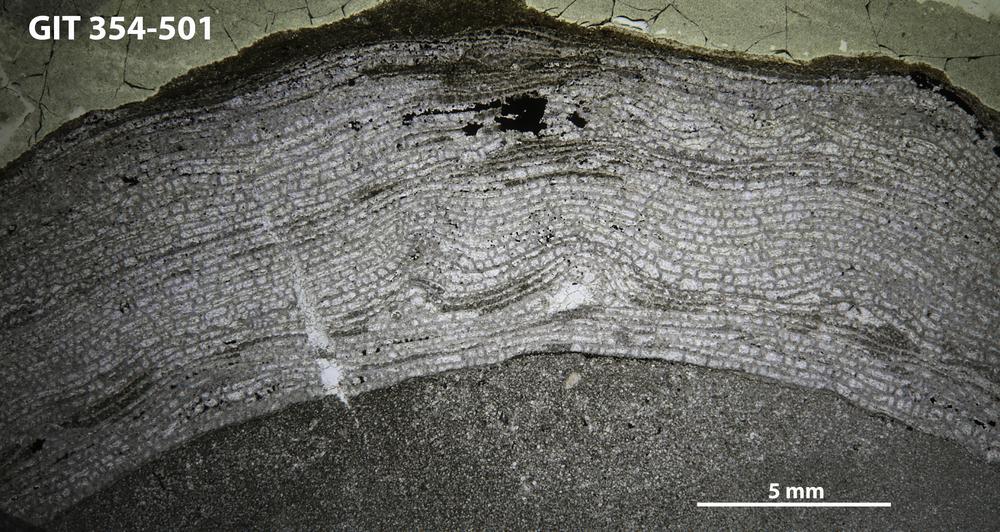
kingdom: Animalia
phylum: Porifera
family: Stromatoporellidae
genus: Simplexodictyon
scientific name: Simplexodictyon
